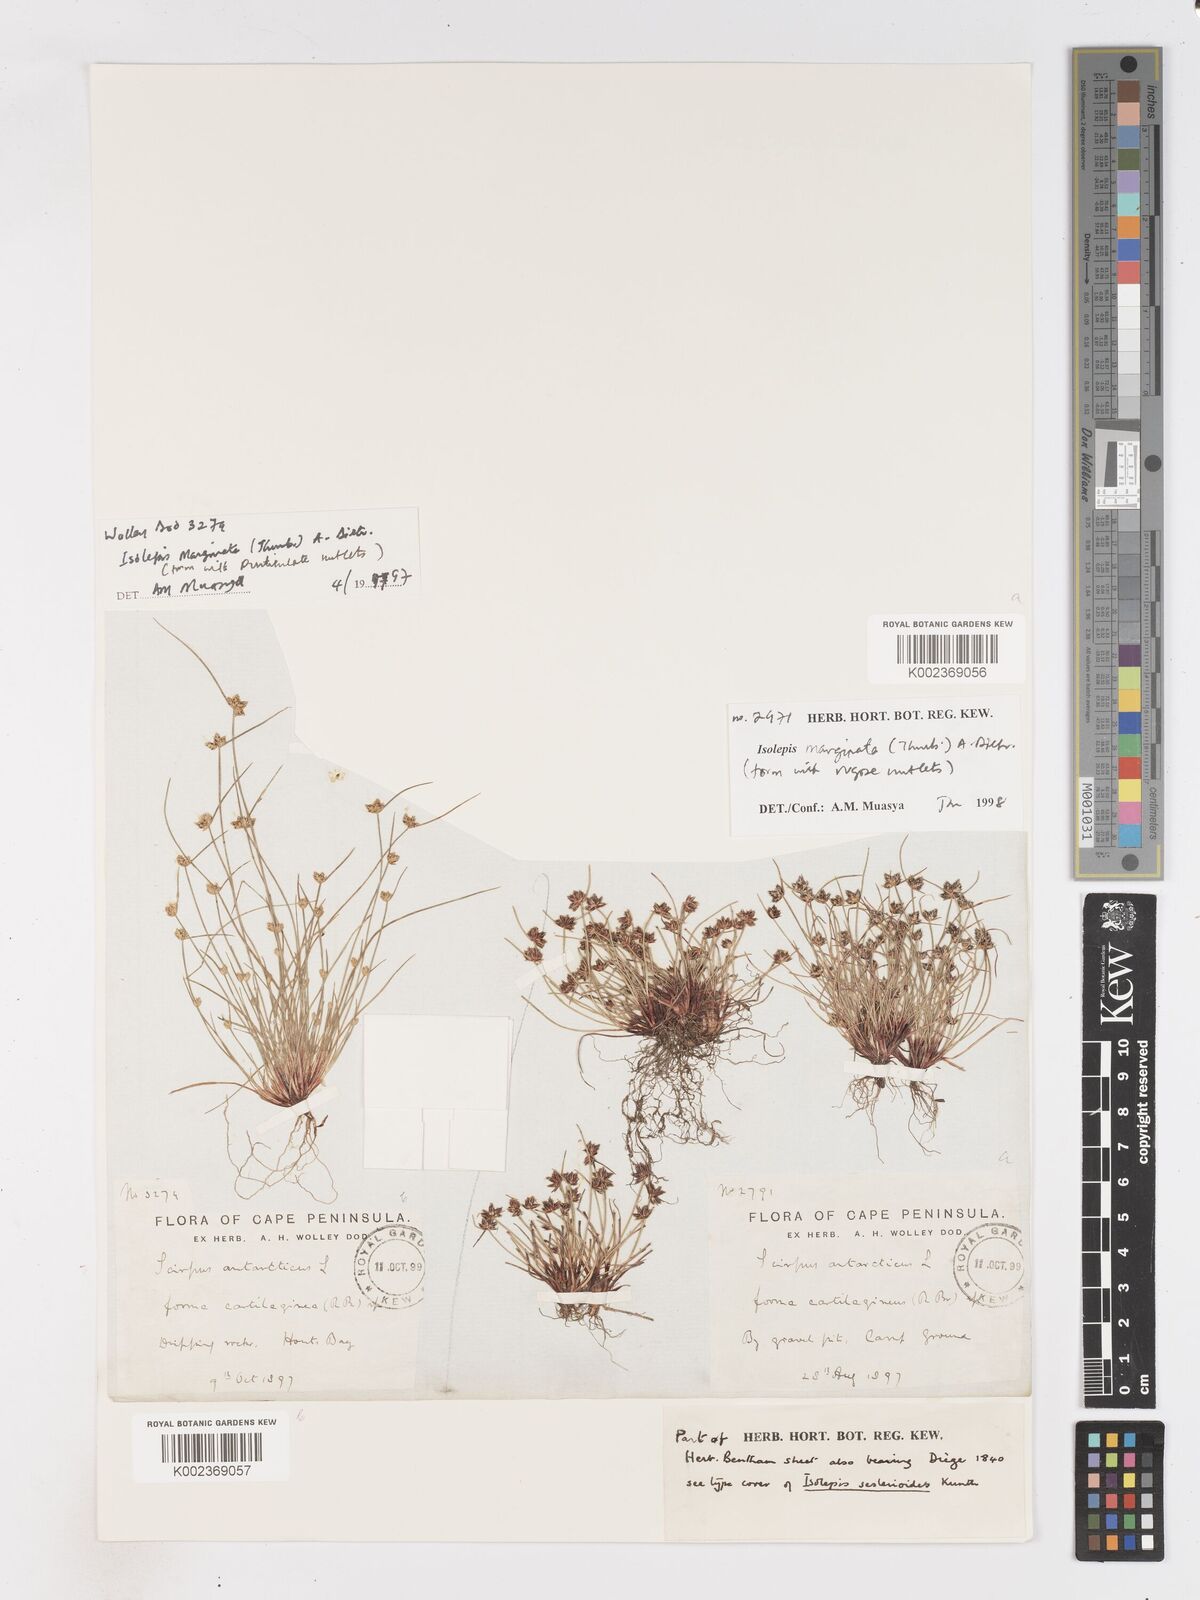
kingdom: Plantae
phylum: Tracheophyta
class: Liliopsida
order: Poales
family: Cyperaceae
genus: Isolepis
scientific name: Isolepis diabolica
